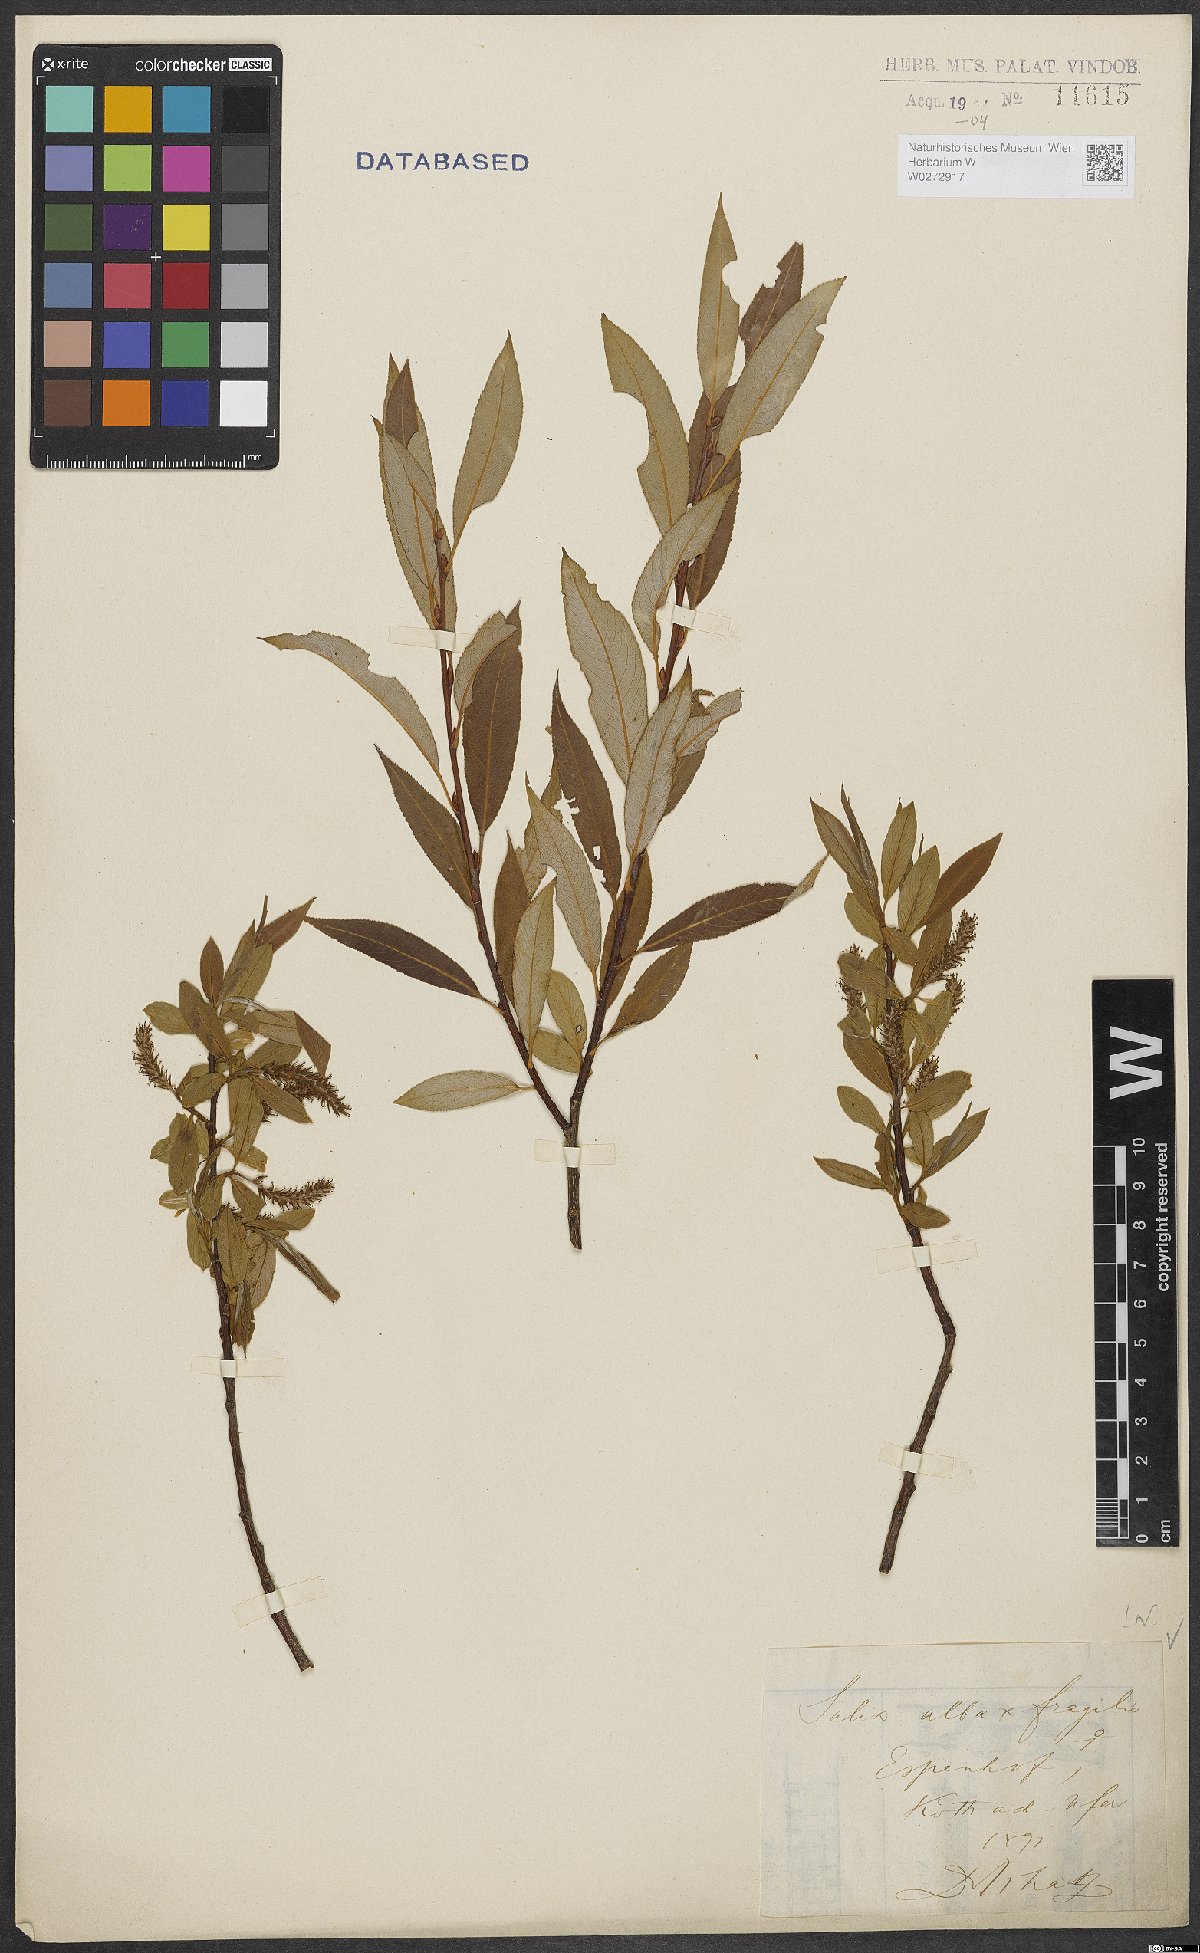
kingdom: Plantae
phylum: Tracheophyta
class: Magnoliopsida
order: Malpighiales
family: Salicaceae
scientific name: Salicaceae
